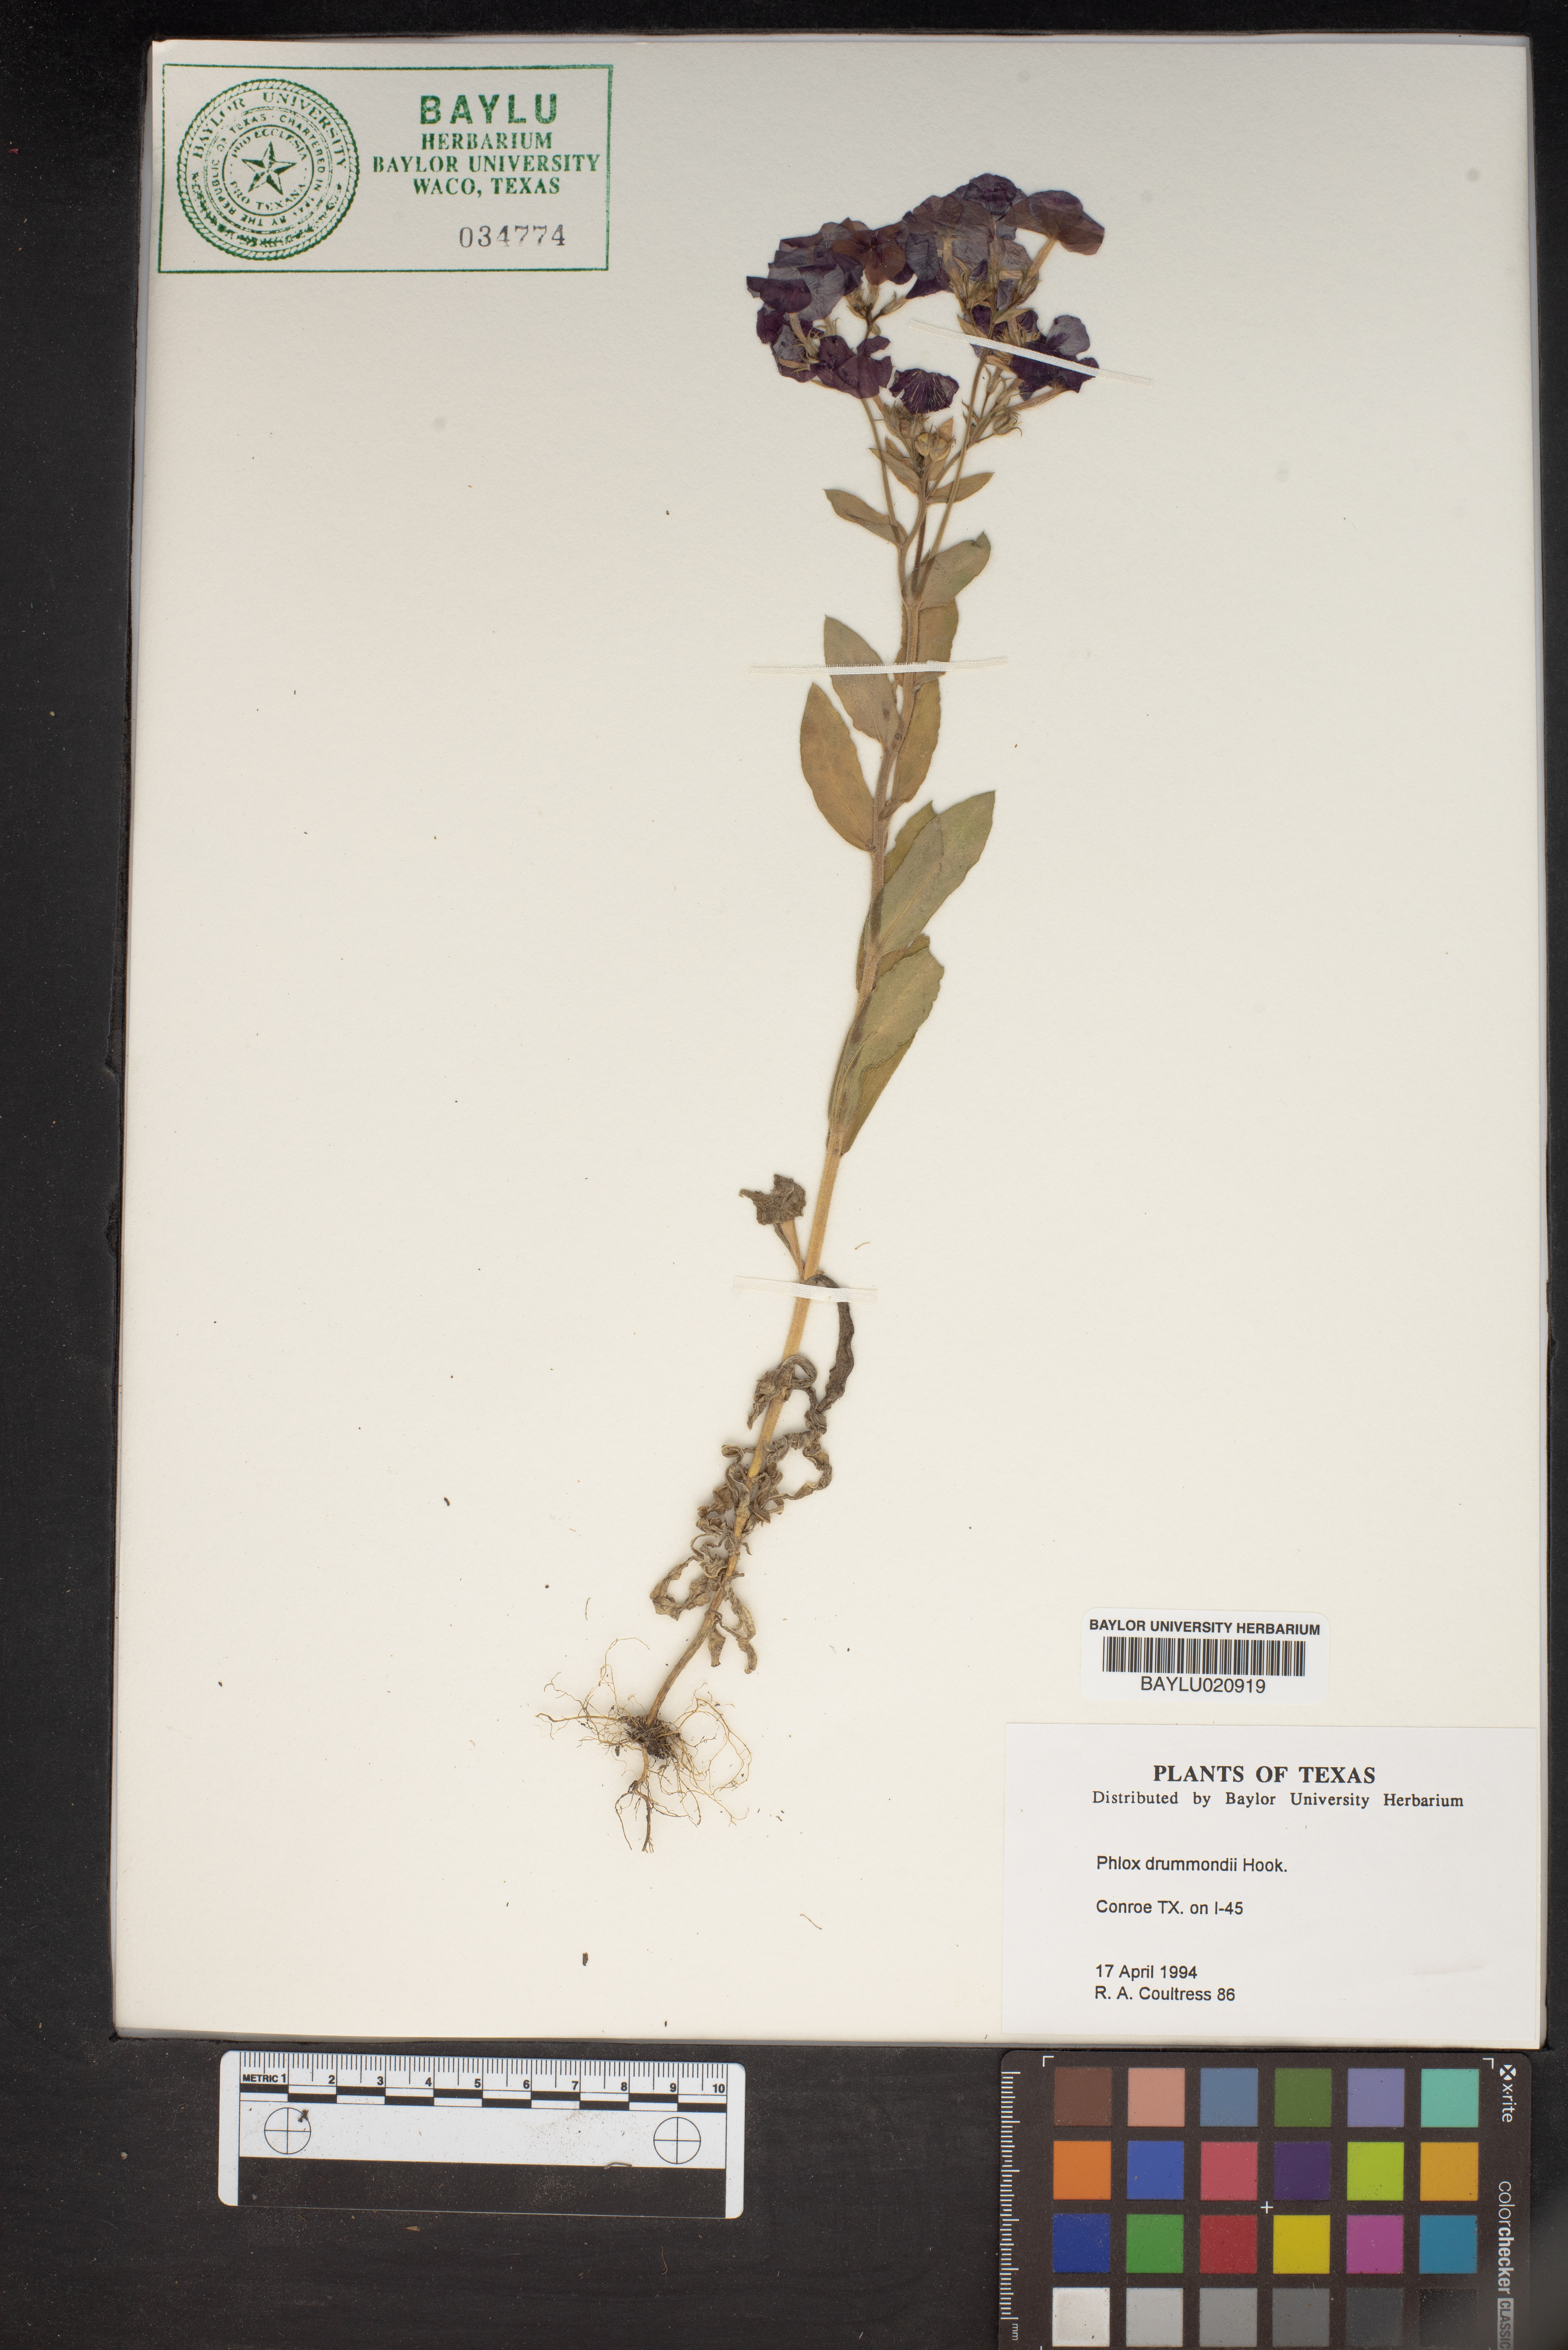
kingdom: Plantae
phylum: Tracheophyta
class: Magnoliopsida
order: Ericales
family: Polemoniaceae
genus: Phlox
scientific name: Phlox drummondii
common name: Drummond's phlox
